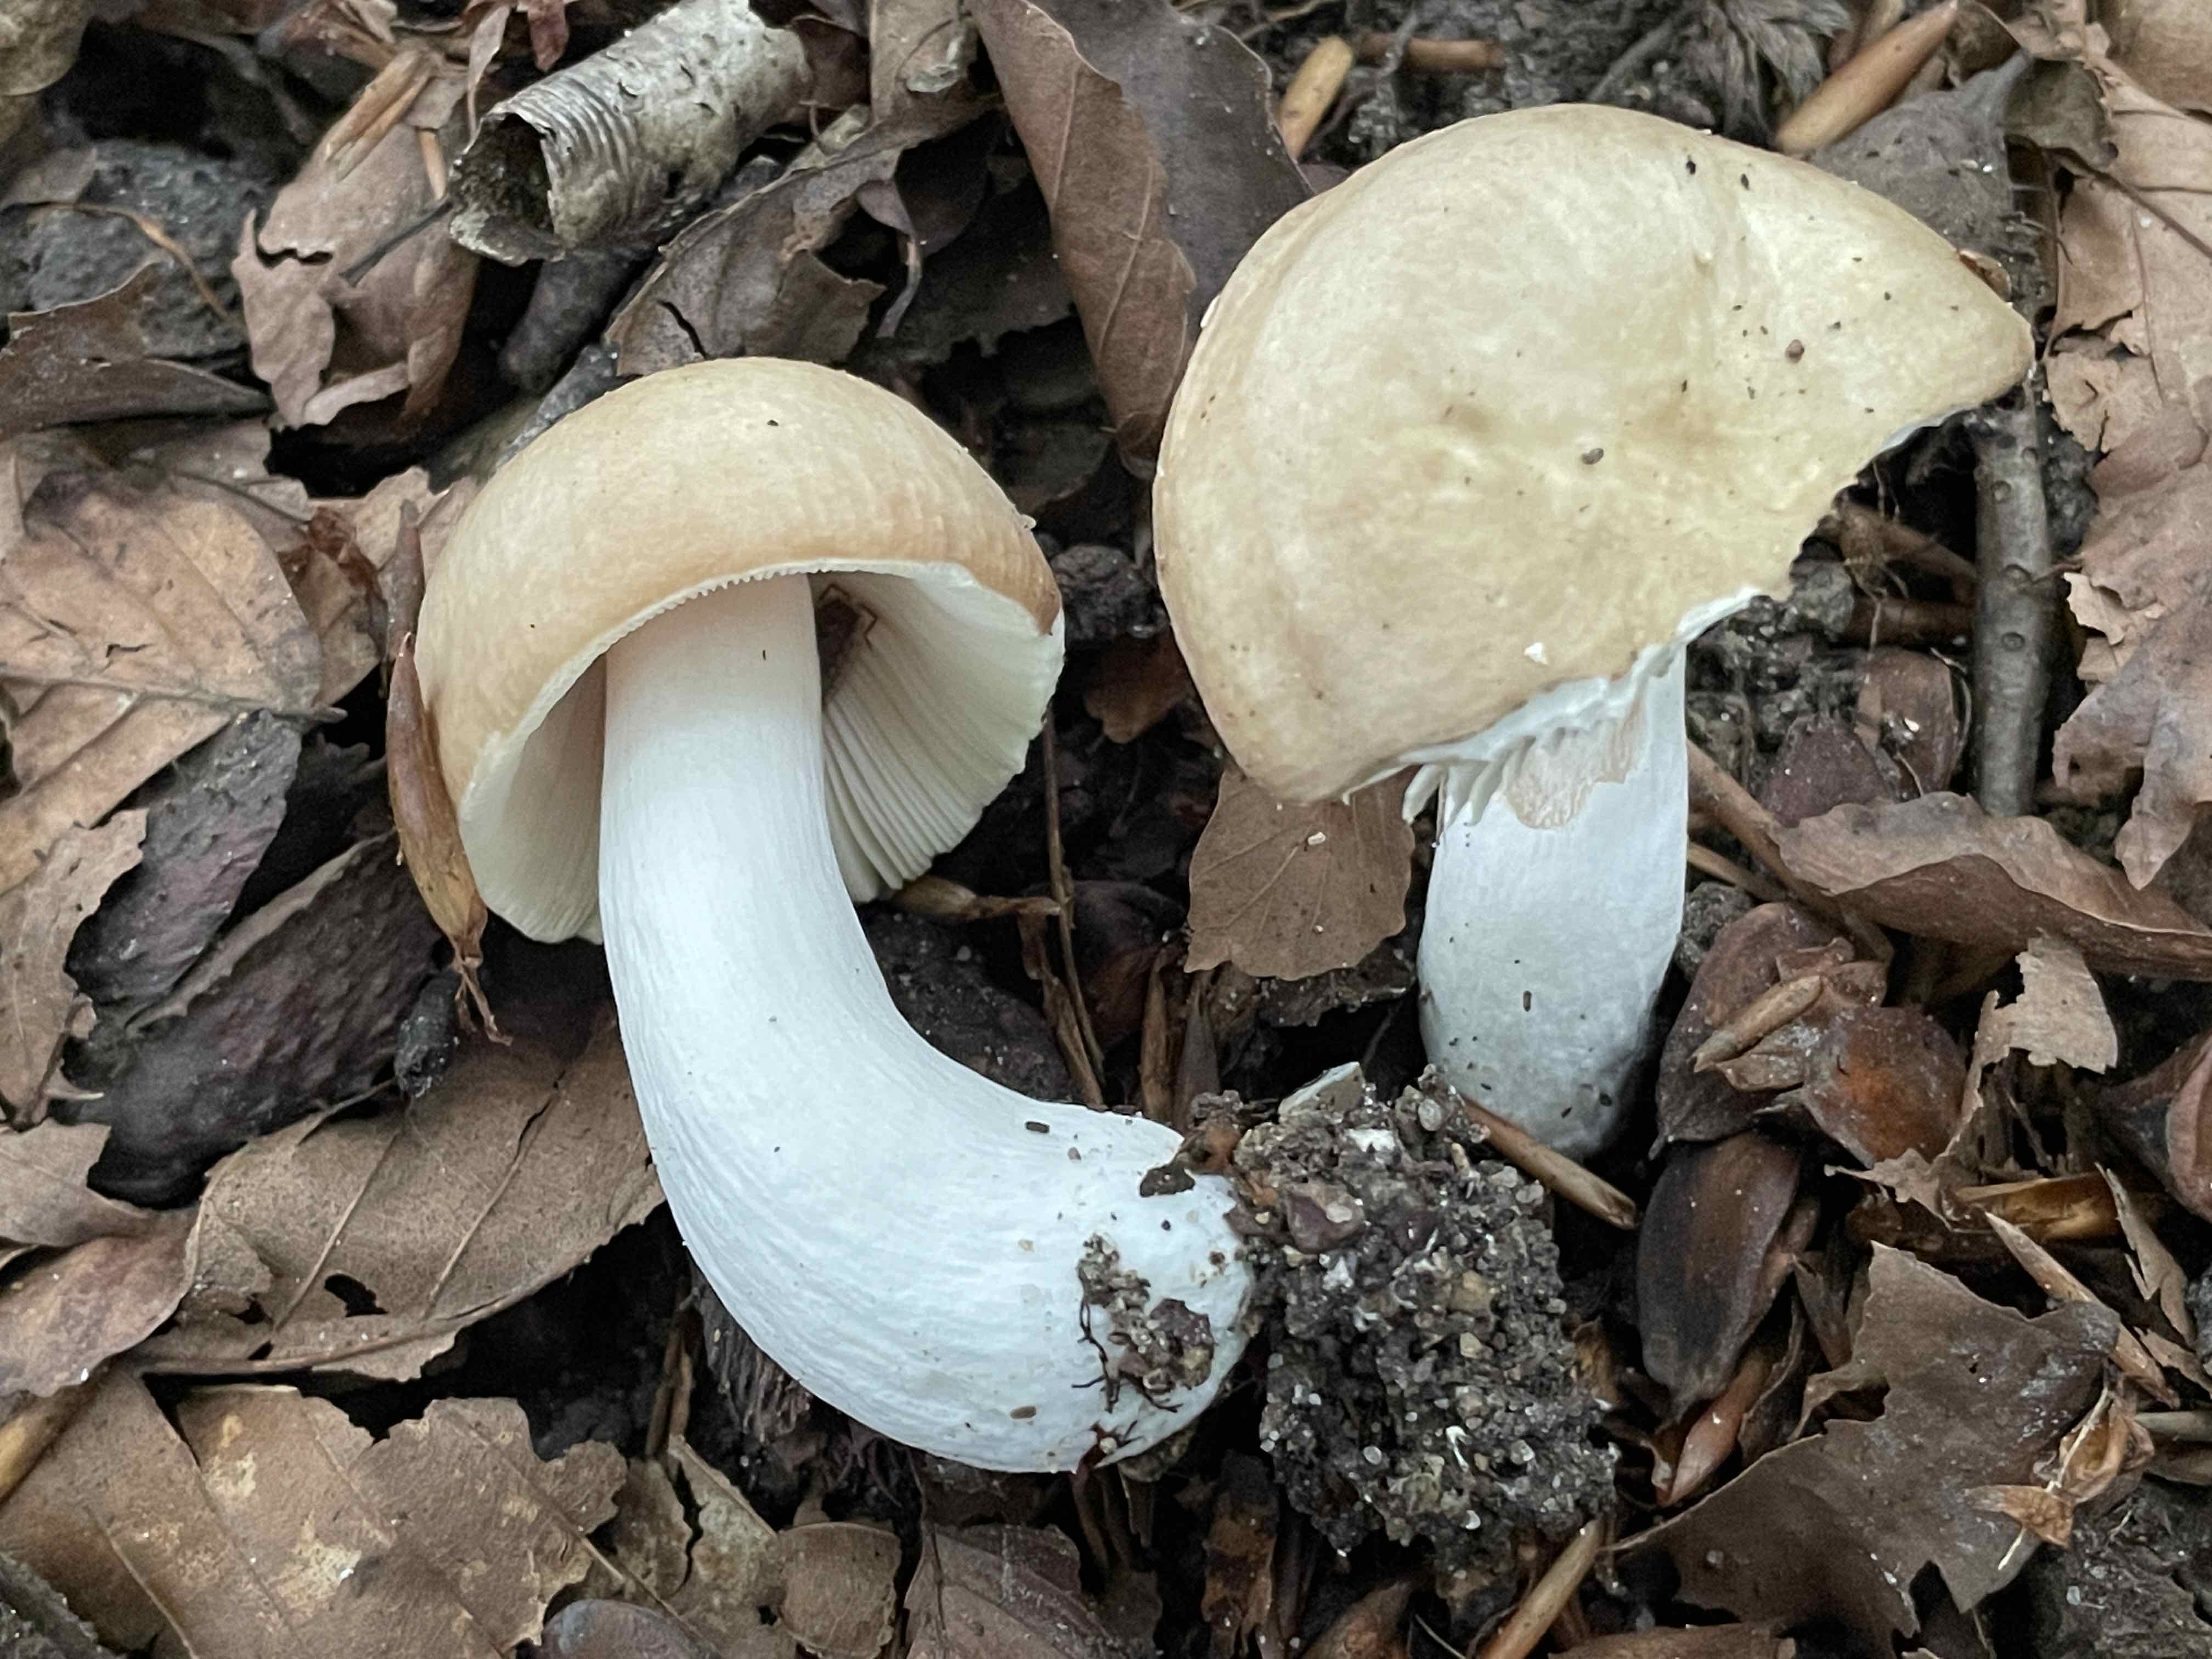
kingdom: Fungi
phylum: Basidiomycota
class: Agaricomycetes
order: Russulales
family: Russulaceae
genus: Russula
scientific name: Russula risigallina
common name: abrikos-skørhat
